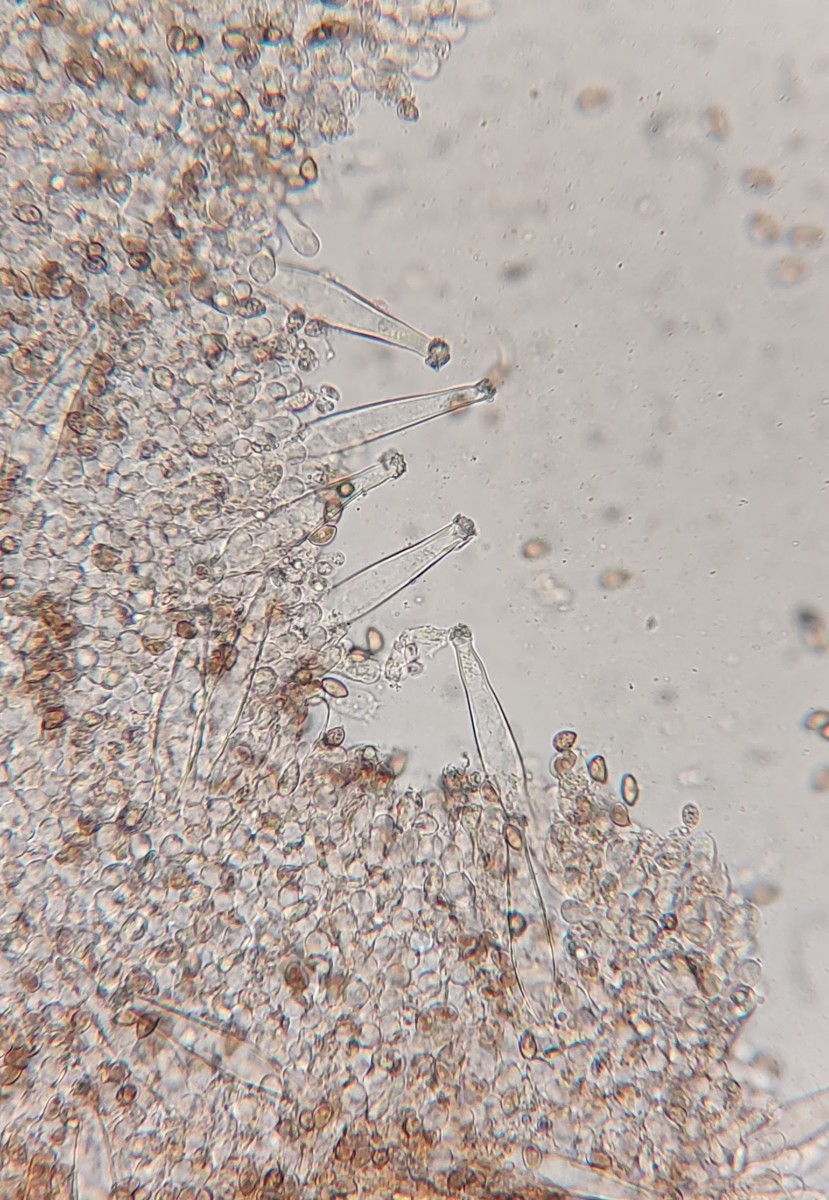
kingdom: Fungi
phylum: Basidiomycota
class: Agaricomycetes
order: Agaricales
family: Inocybaceae
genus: Inocybe
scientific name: Inocybe cincinnata
